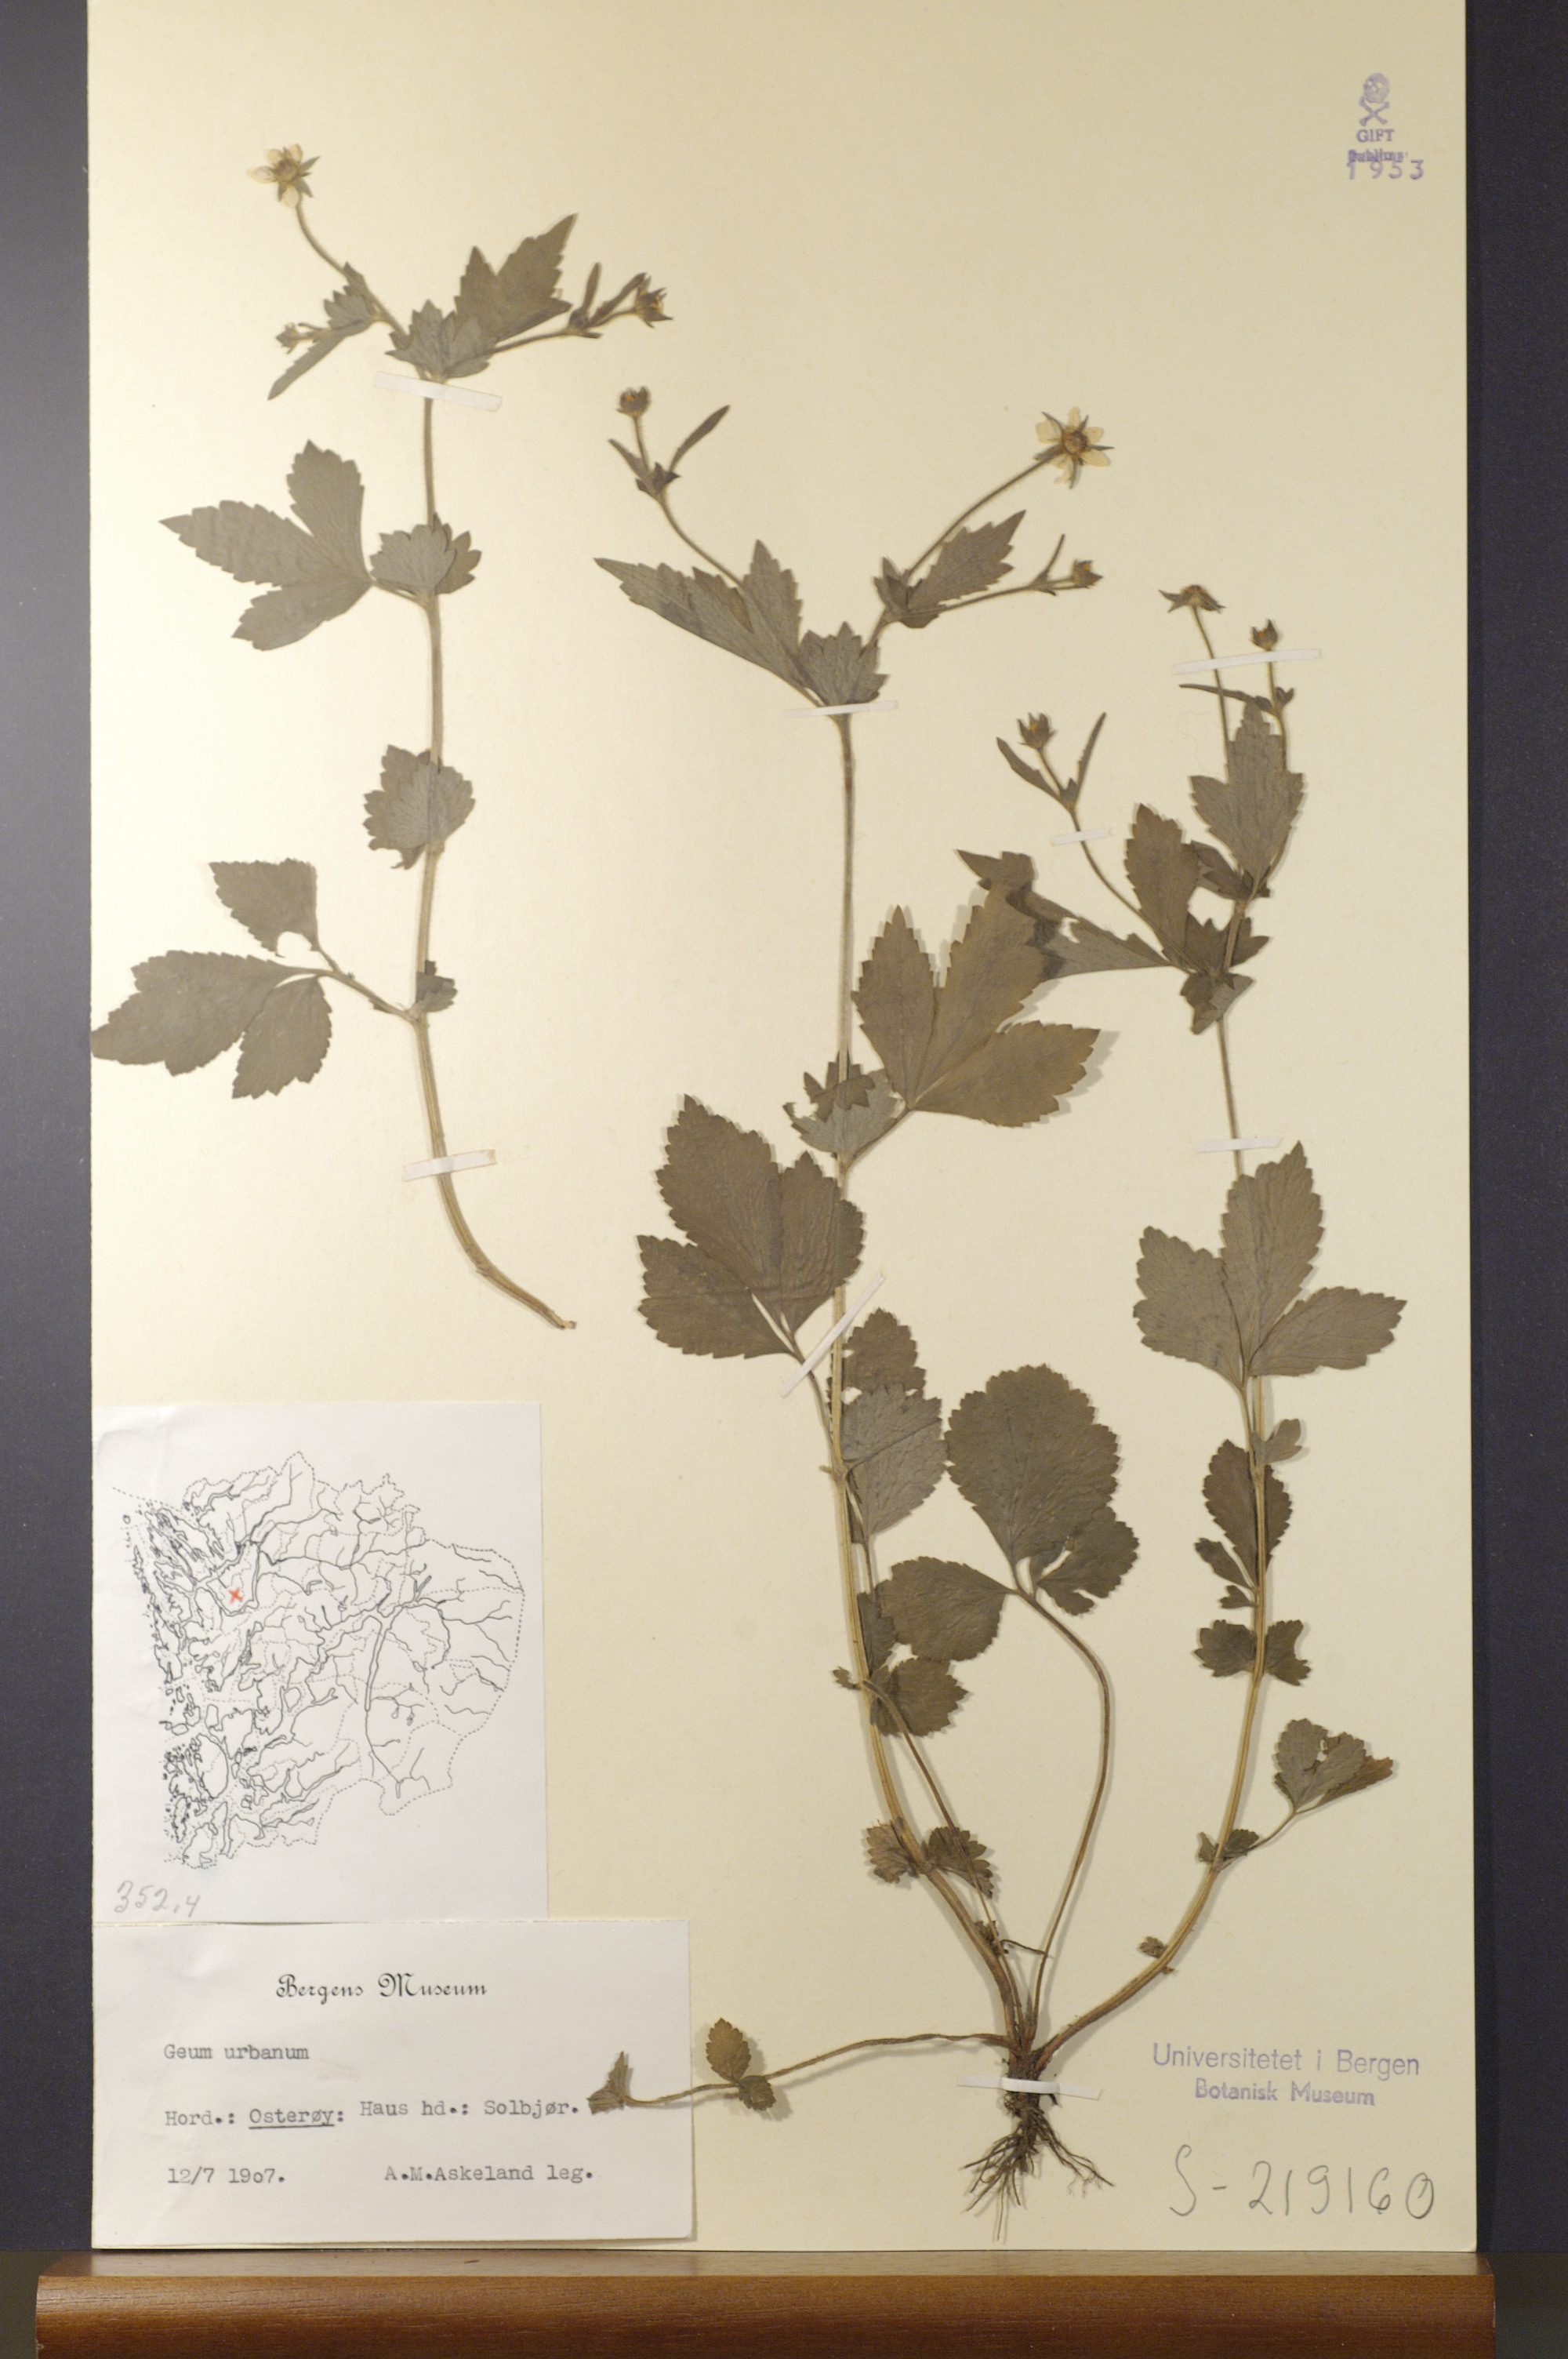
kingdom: Plantae
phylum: Tracheophyta
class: Magnoliopsida
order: Rosales
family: Rosaceae
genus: Geum
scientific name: Geum urbanum
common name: Wood avens
